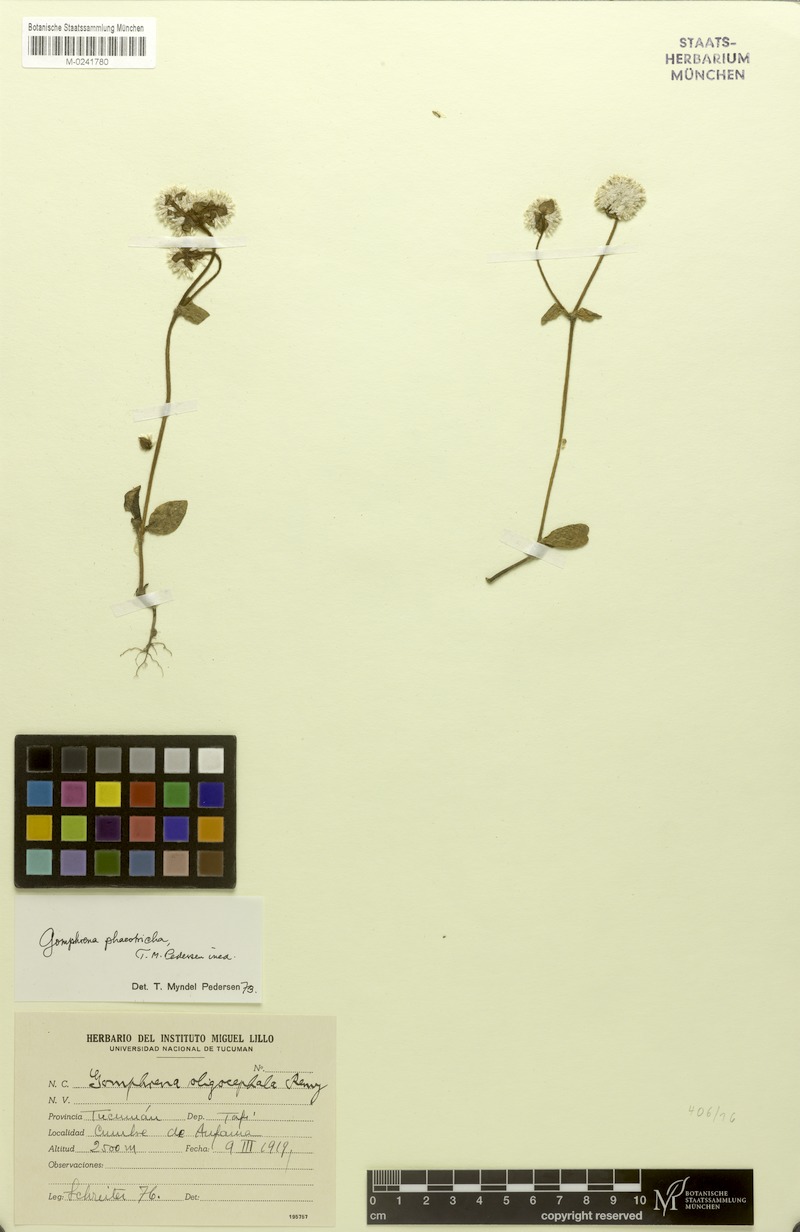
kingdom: Plantae
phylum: Tracheophyta
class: Magnoliopsida
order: Caryophyllales
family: Amaranthaceae
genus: Gomphrena
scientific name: Gomphrena phaeotricha
